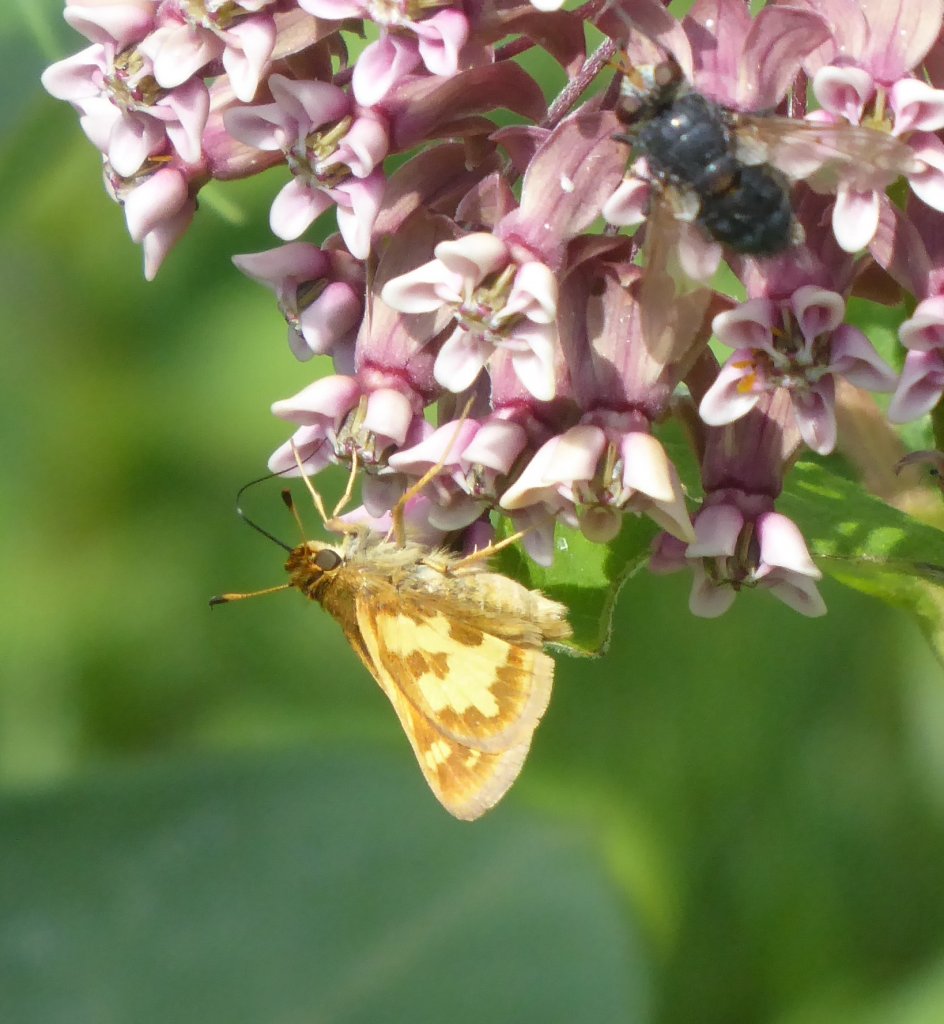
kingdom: Animalia
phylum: Arthropoda
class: Insecta
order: Lepidoptera
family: Hesperiidae
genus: Polites
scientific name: Polites coras
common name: Peck's Skipper
